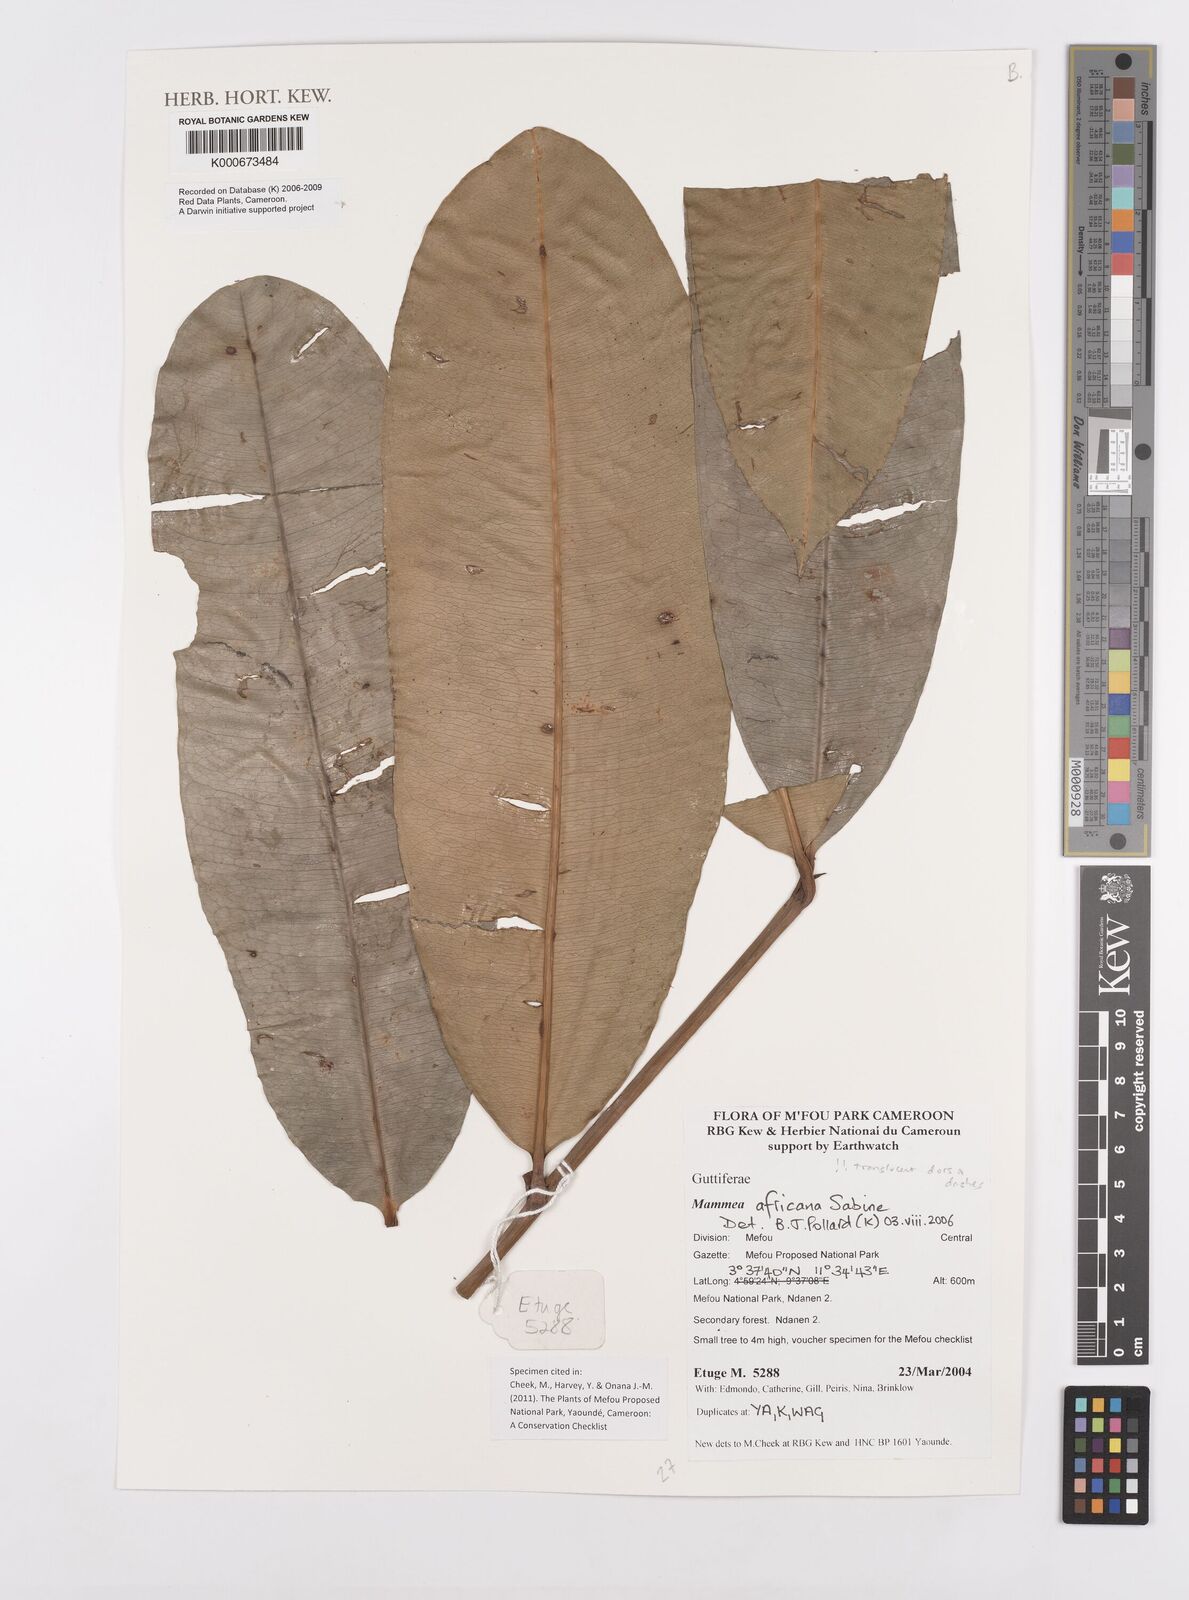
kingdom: Plantae
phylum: Tracheophyta
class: Magnoliopsida
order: Malpighiales
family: Calophyllaceae
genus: Mammea
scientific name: Mammea africana
